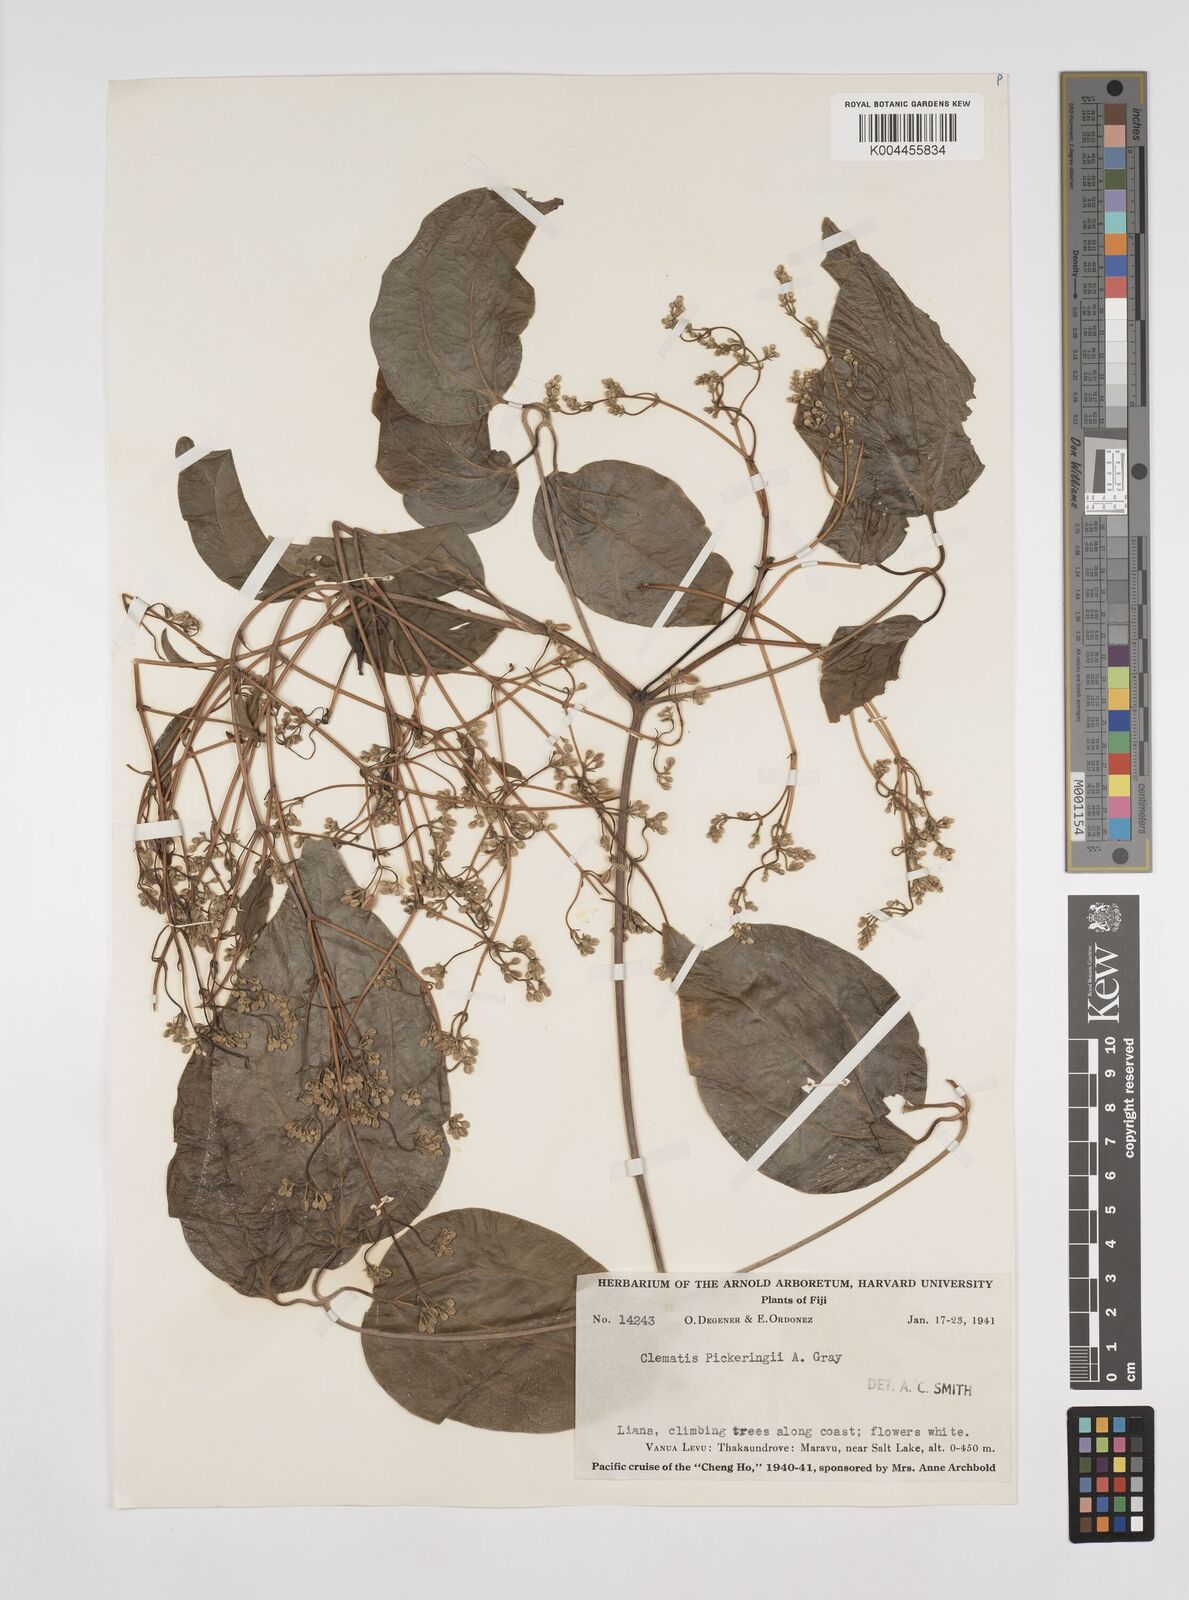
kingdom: Plantae
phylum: Tracheophyta
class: Magnoliopsida
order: Ranunculales
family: Ranunculaceae
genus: Clematis
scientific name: Clematis pickeringii
